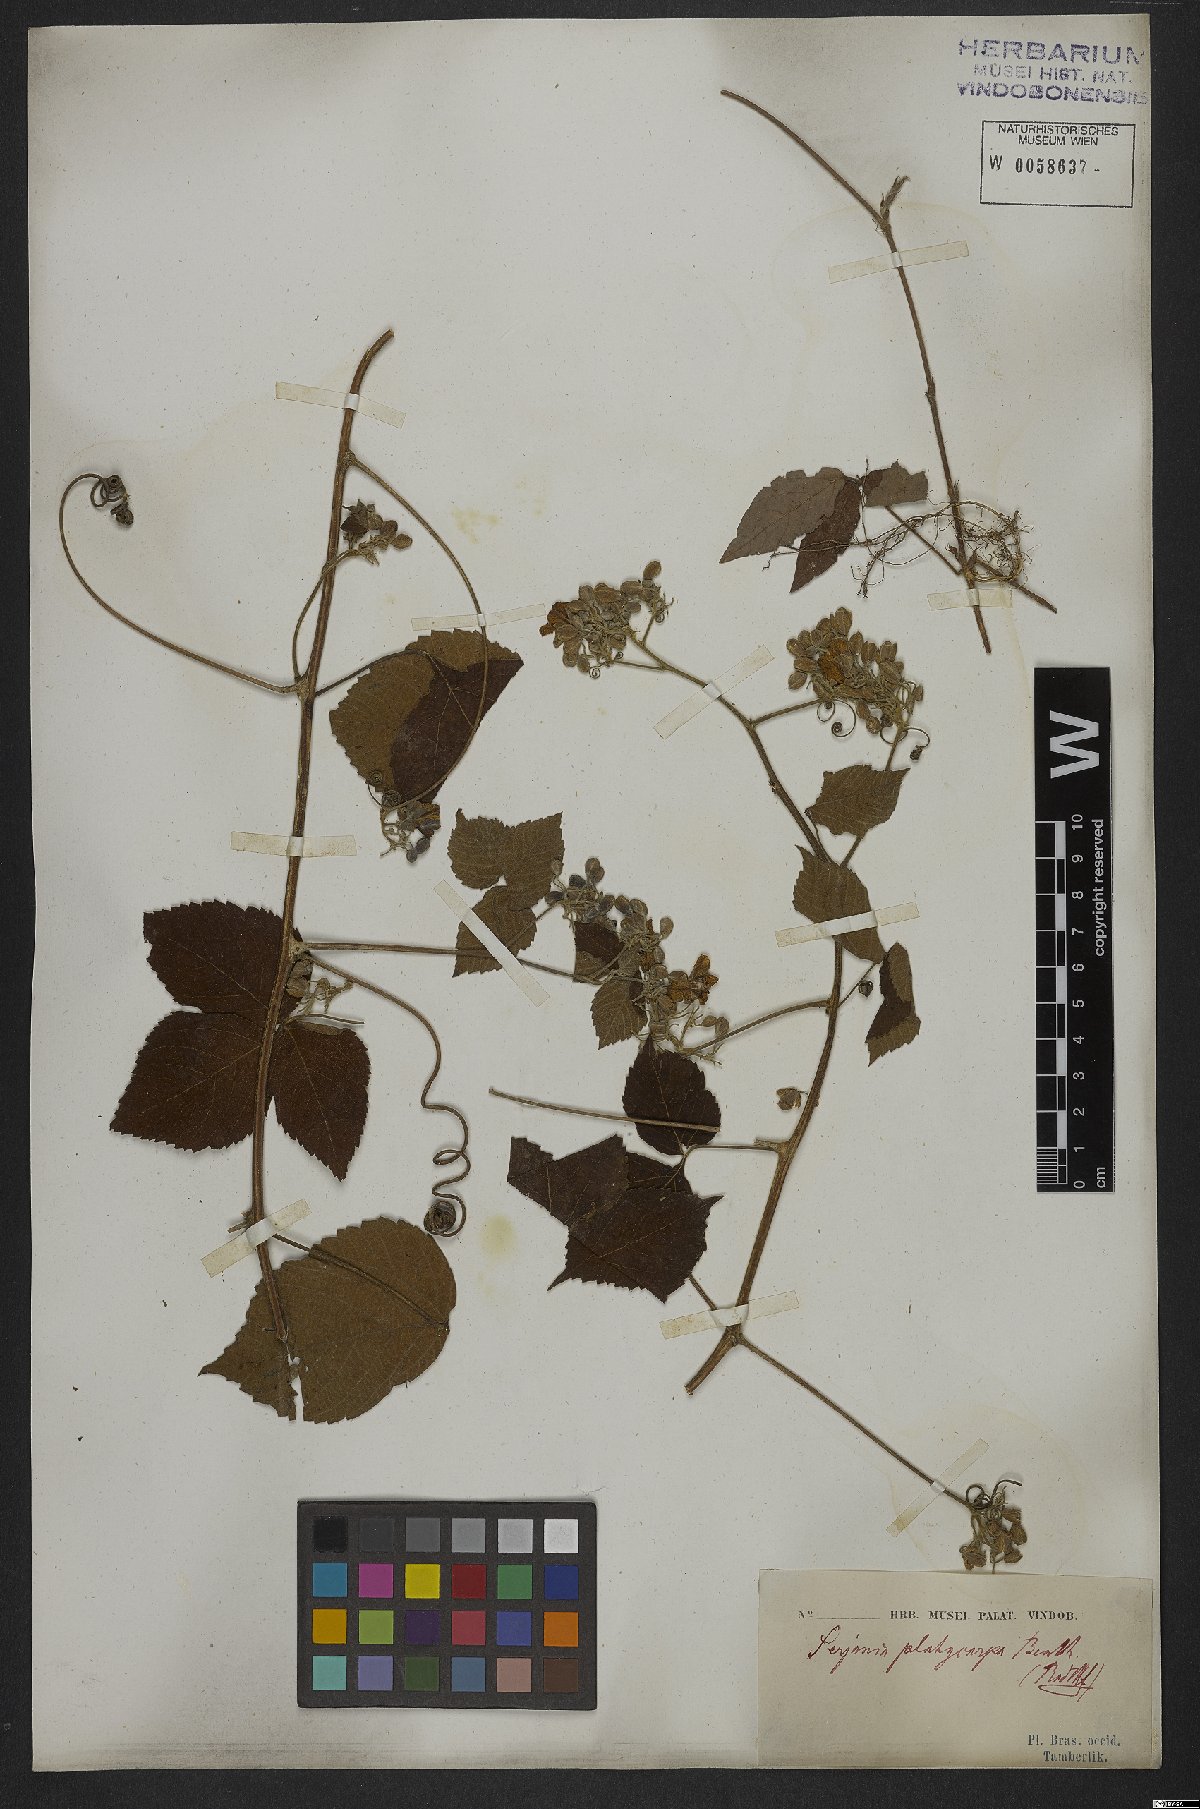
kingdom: Plantae
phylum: Tracheophyta
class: Magnoliopsida
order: Sapindales
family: Sapindaceae
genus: Serjania
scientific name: Serjania platycarpa
